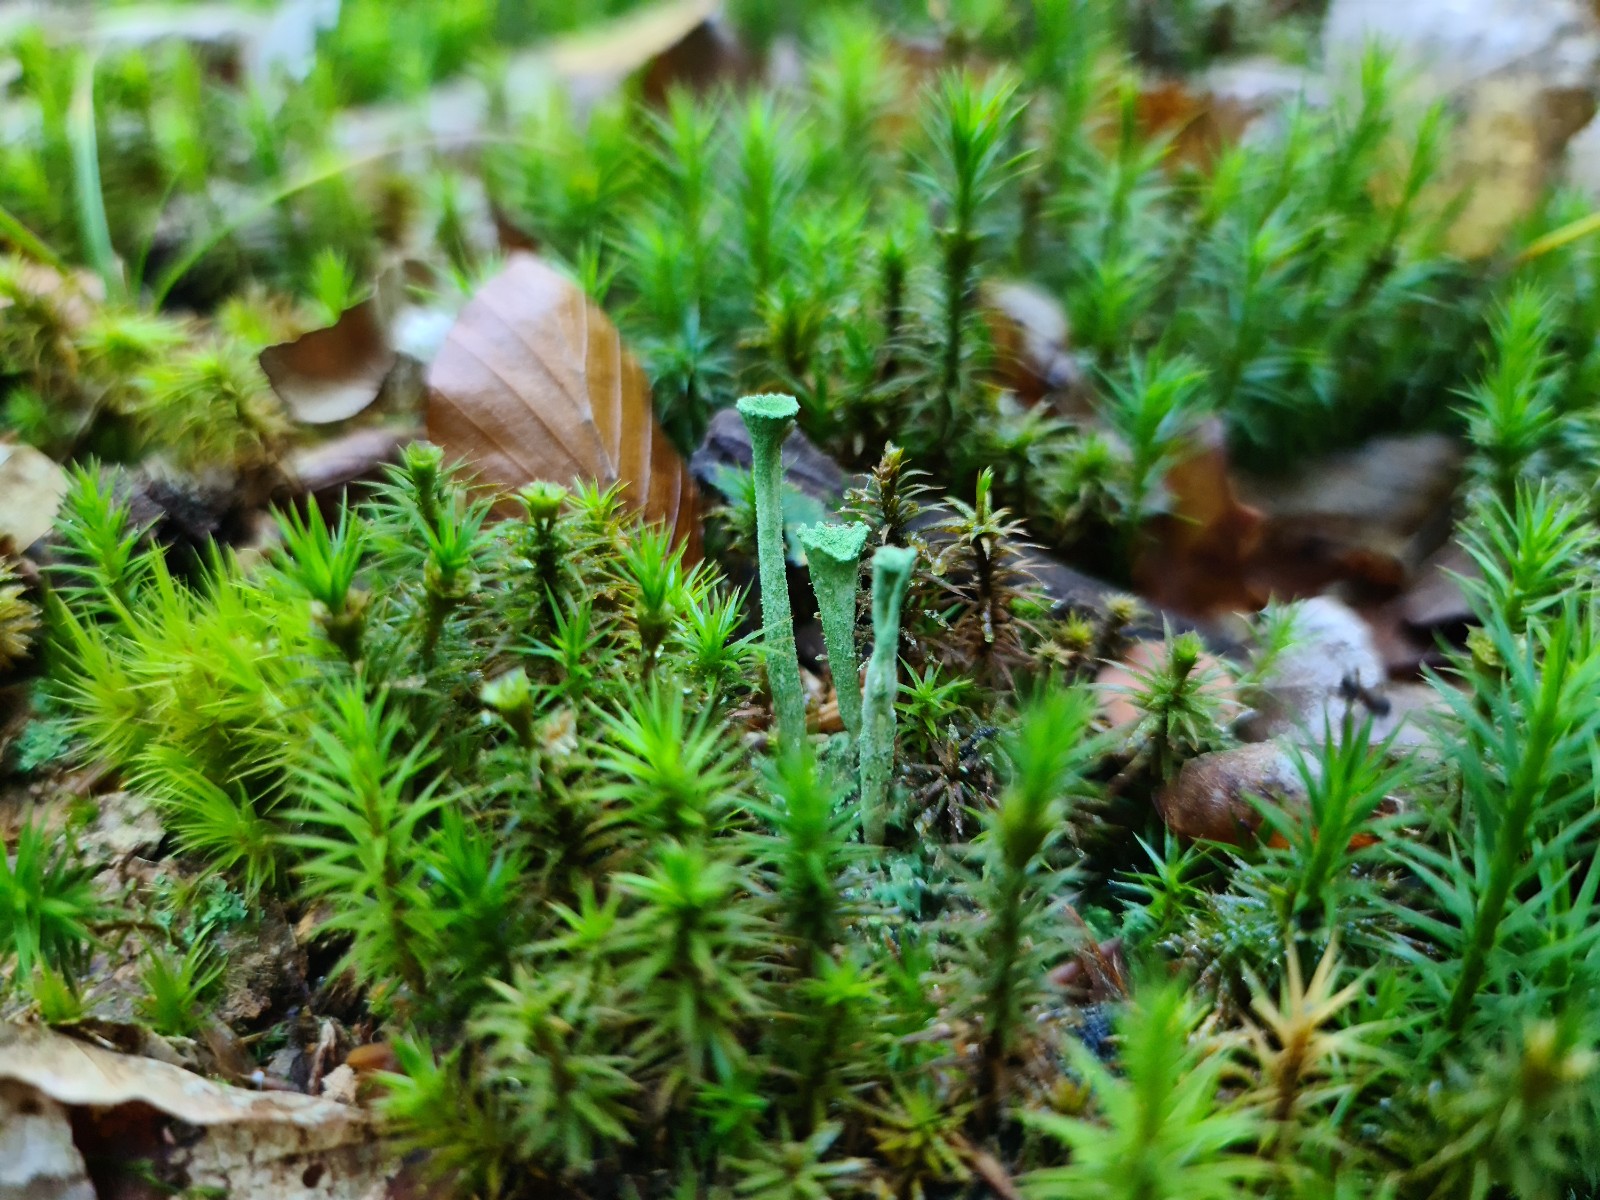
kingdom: Fungi
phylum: Ascomycota
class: Lecanoromycetes
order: Lecanorales
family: Cladoniaceae
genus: Cladonia
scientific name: Cladonia fimbriata
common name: bleggrøn bægerlav
